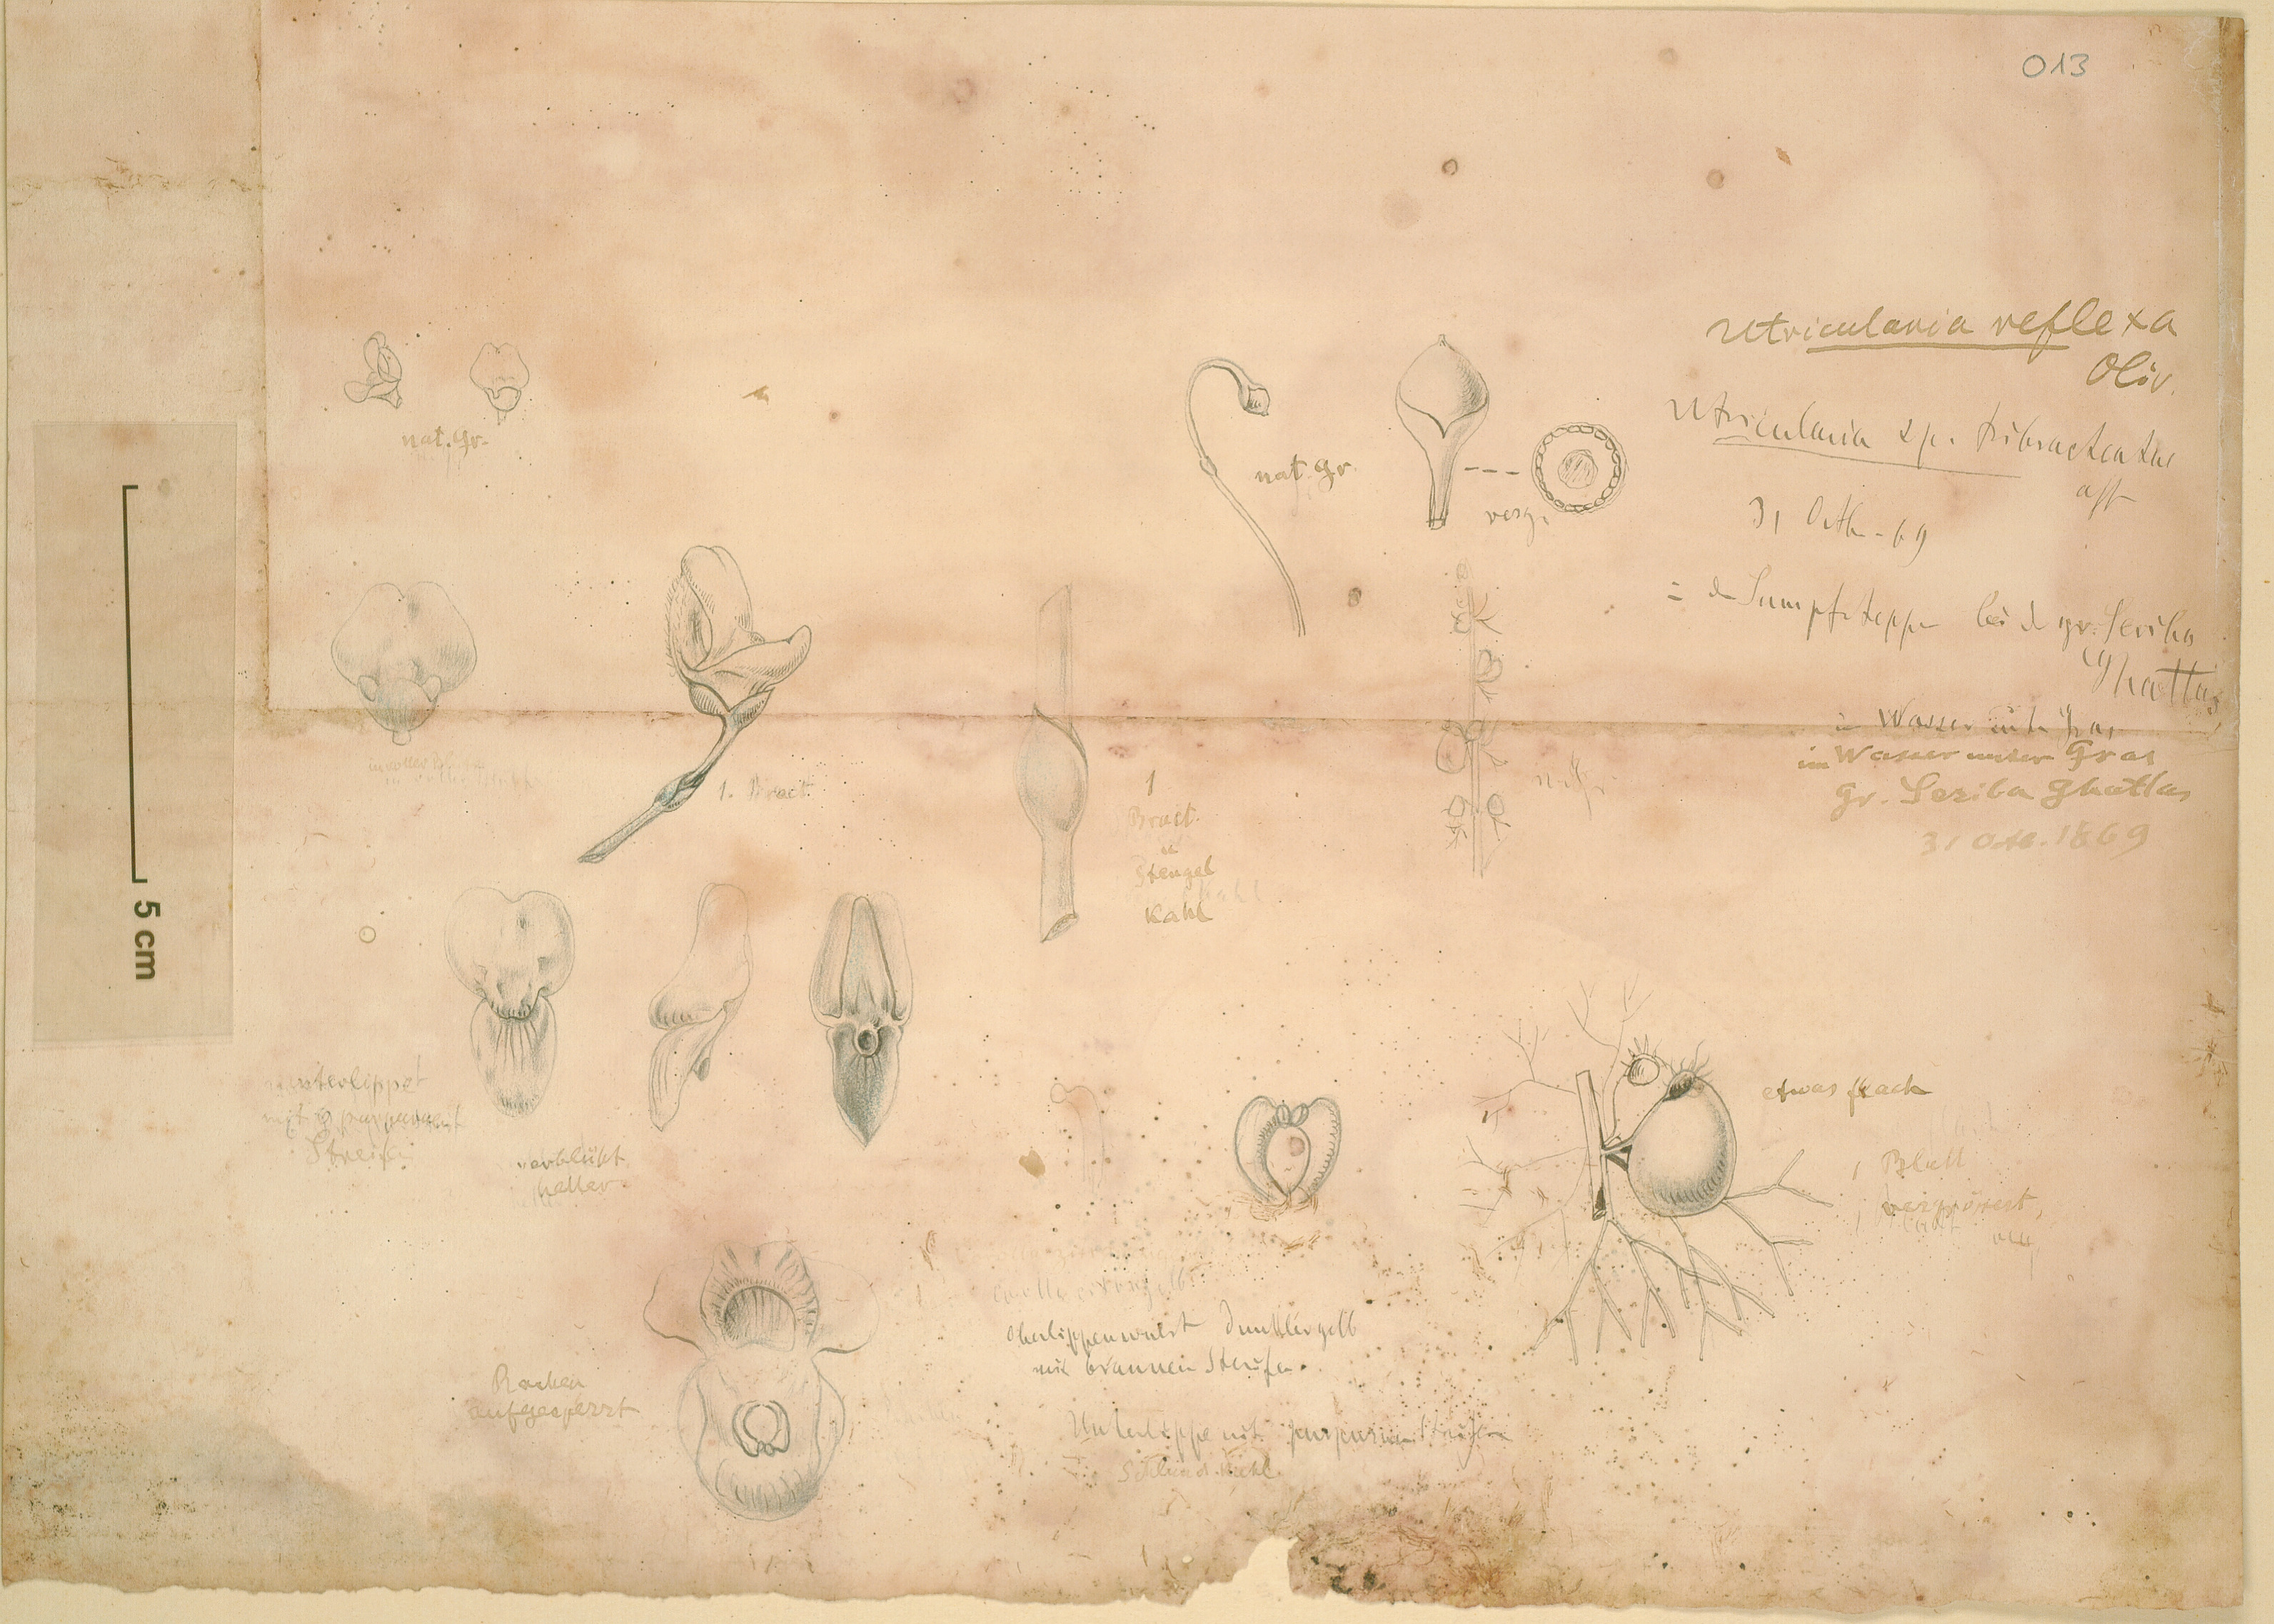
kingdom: Plantae
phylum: Tracheophyta
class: Magnoliopsida
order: Lamiales
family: Lentibulariaceae
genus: Utricularia
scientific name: Utricularia reflexa
